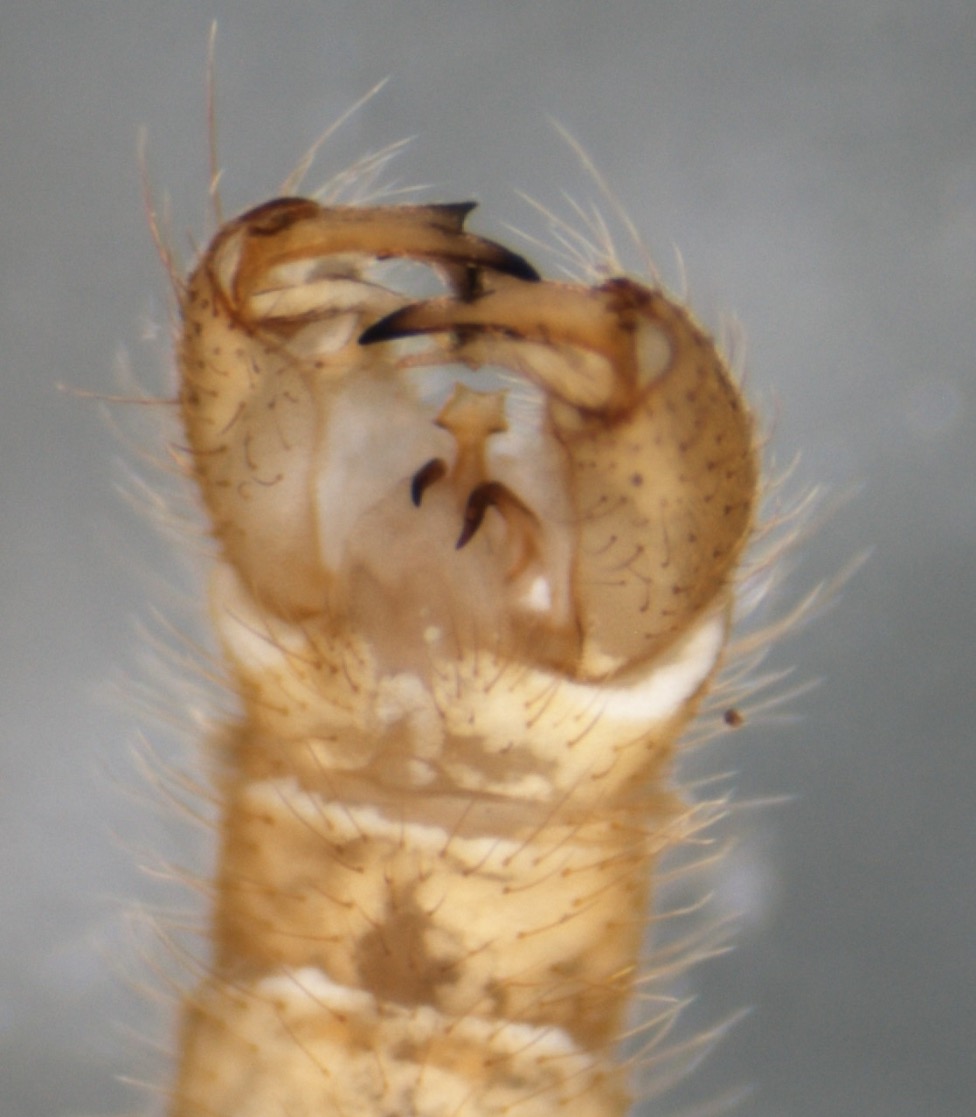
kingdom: Animalia
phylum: Arthropoda
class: Insecta
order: Diptera
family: Limoniidae
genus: Erioptera
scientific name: Erioptera griseipennis
